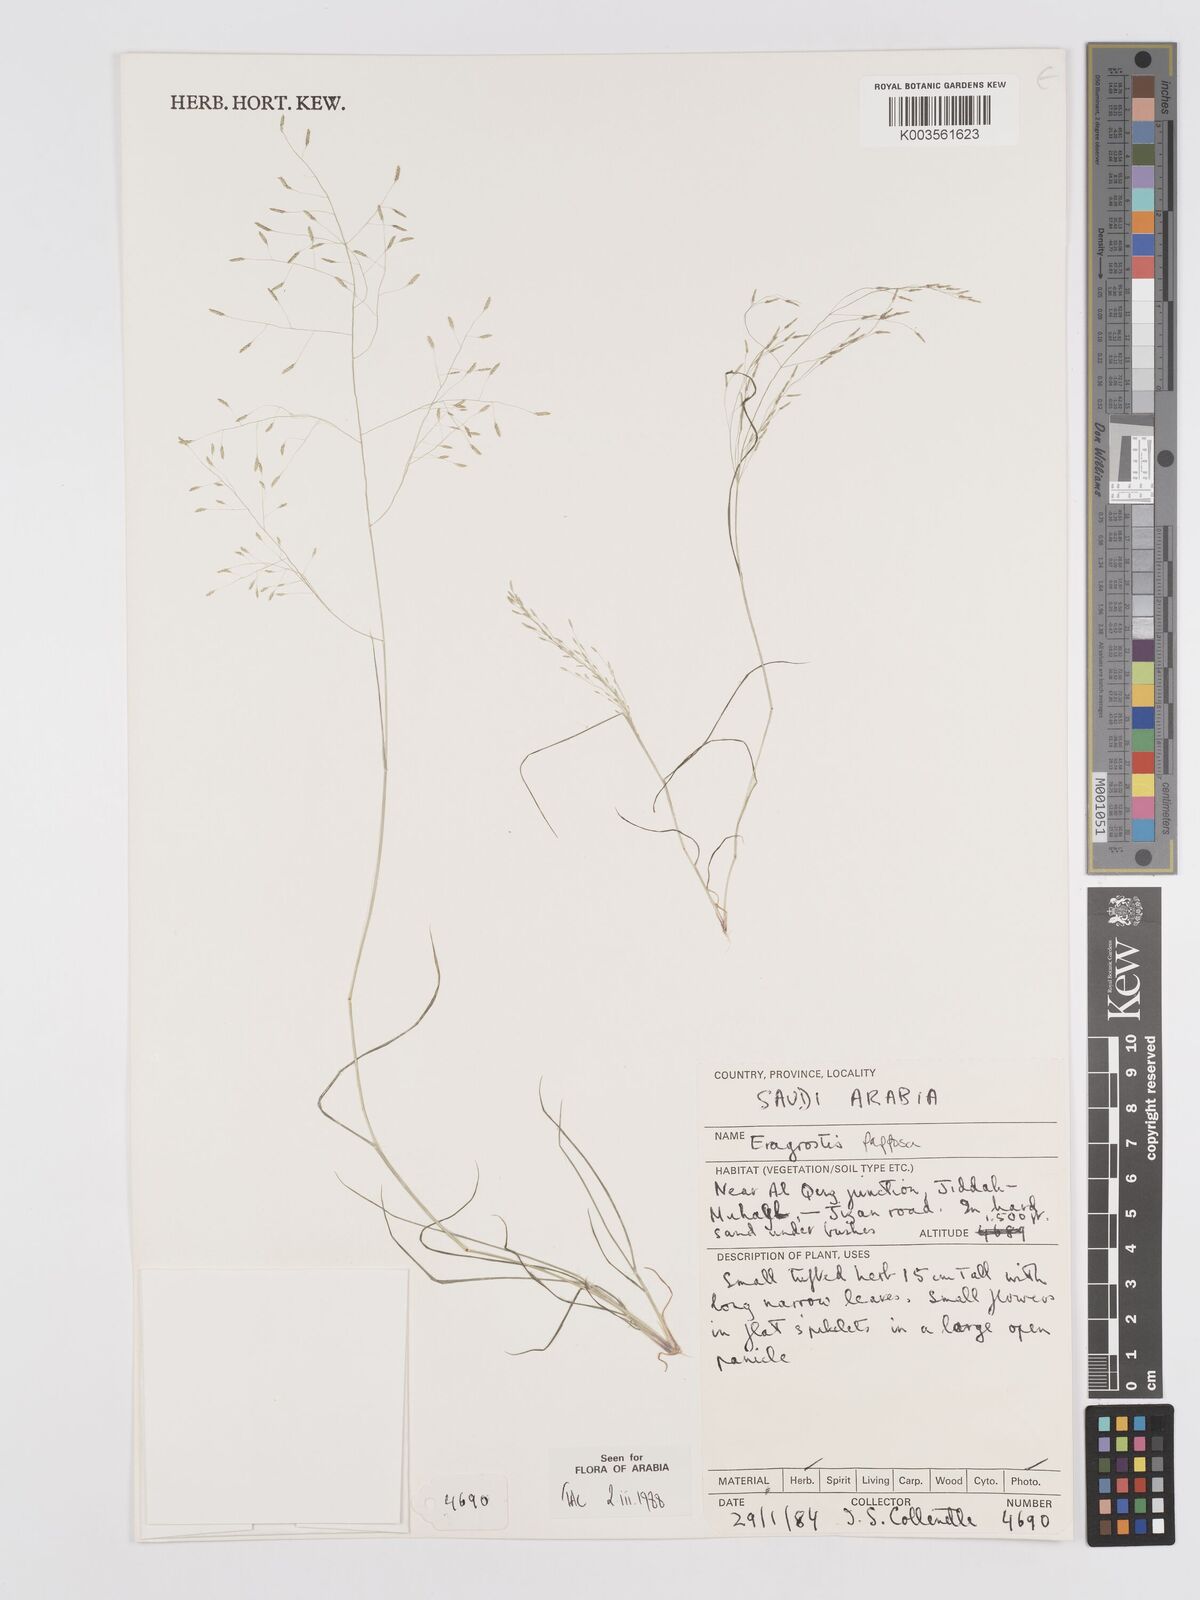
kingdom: Plantae
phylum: Tracheophyta
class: Liliopsida
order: Poales
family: Poaceae
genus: Eragrostis
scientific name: Eragrostis papposa
